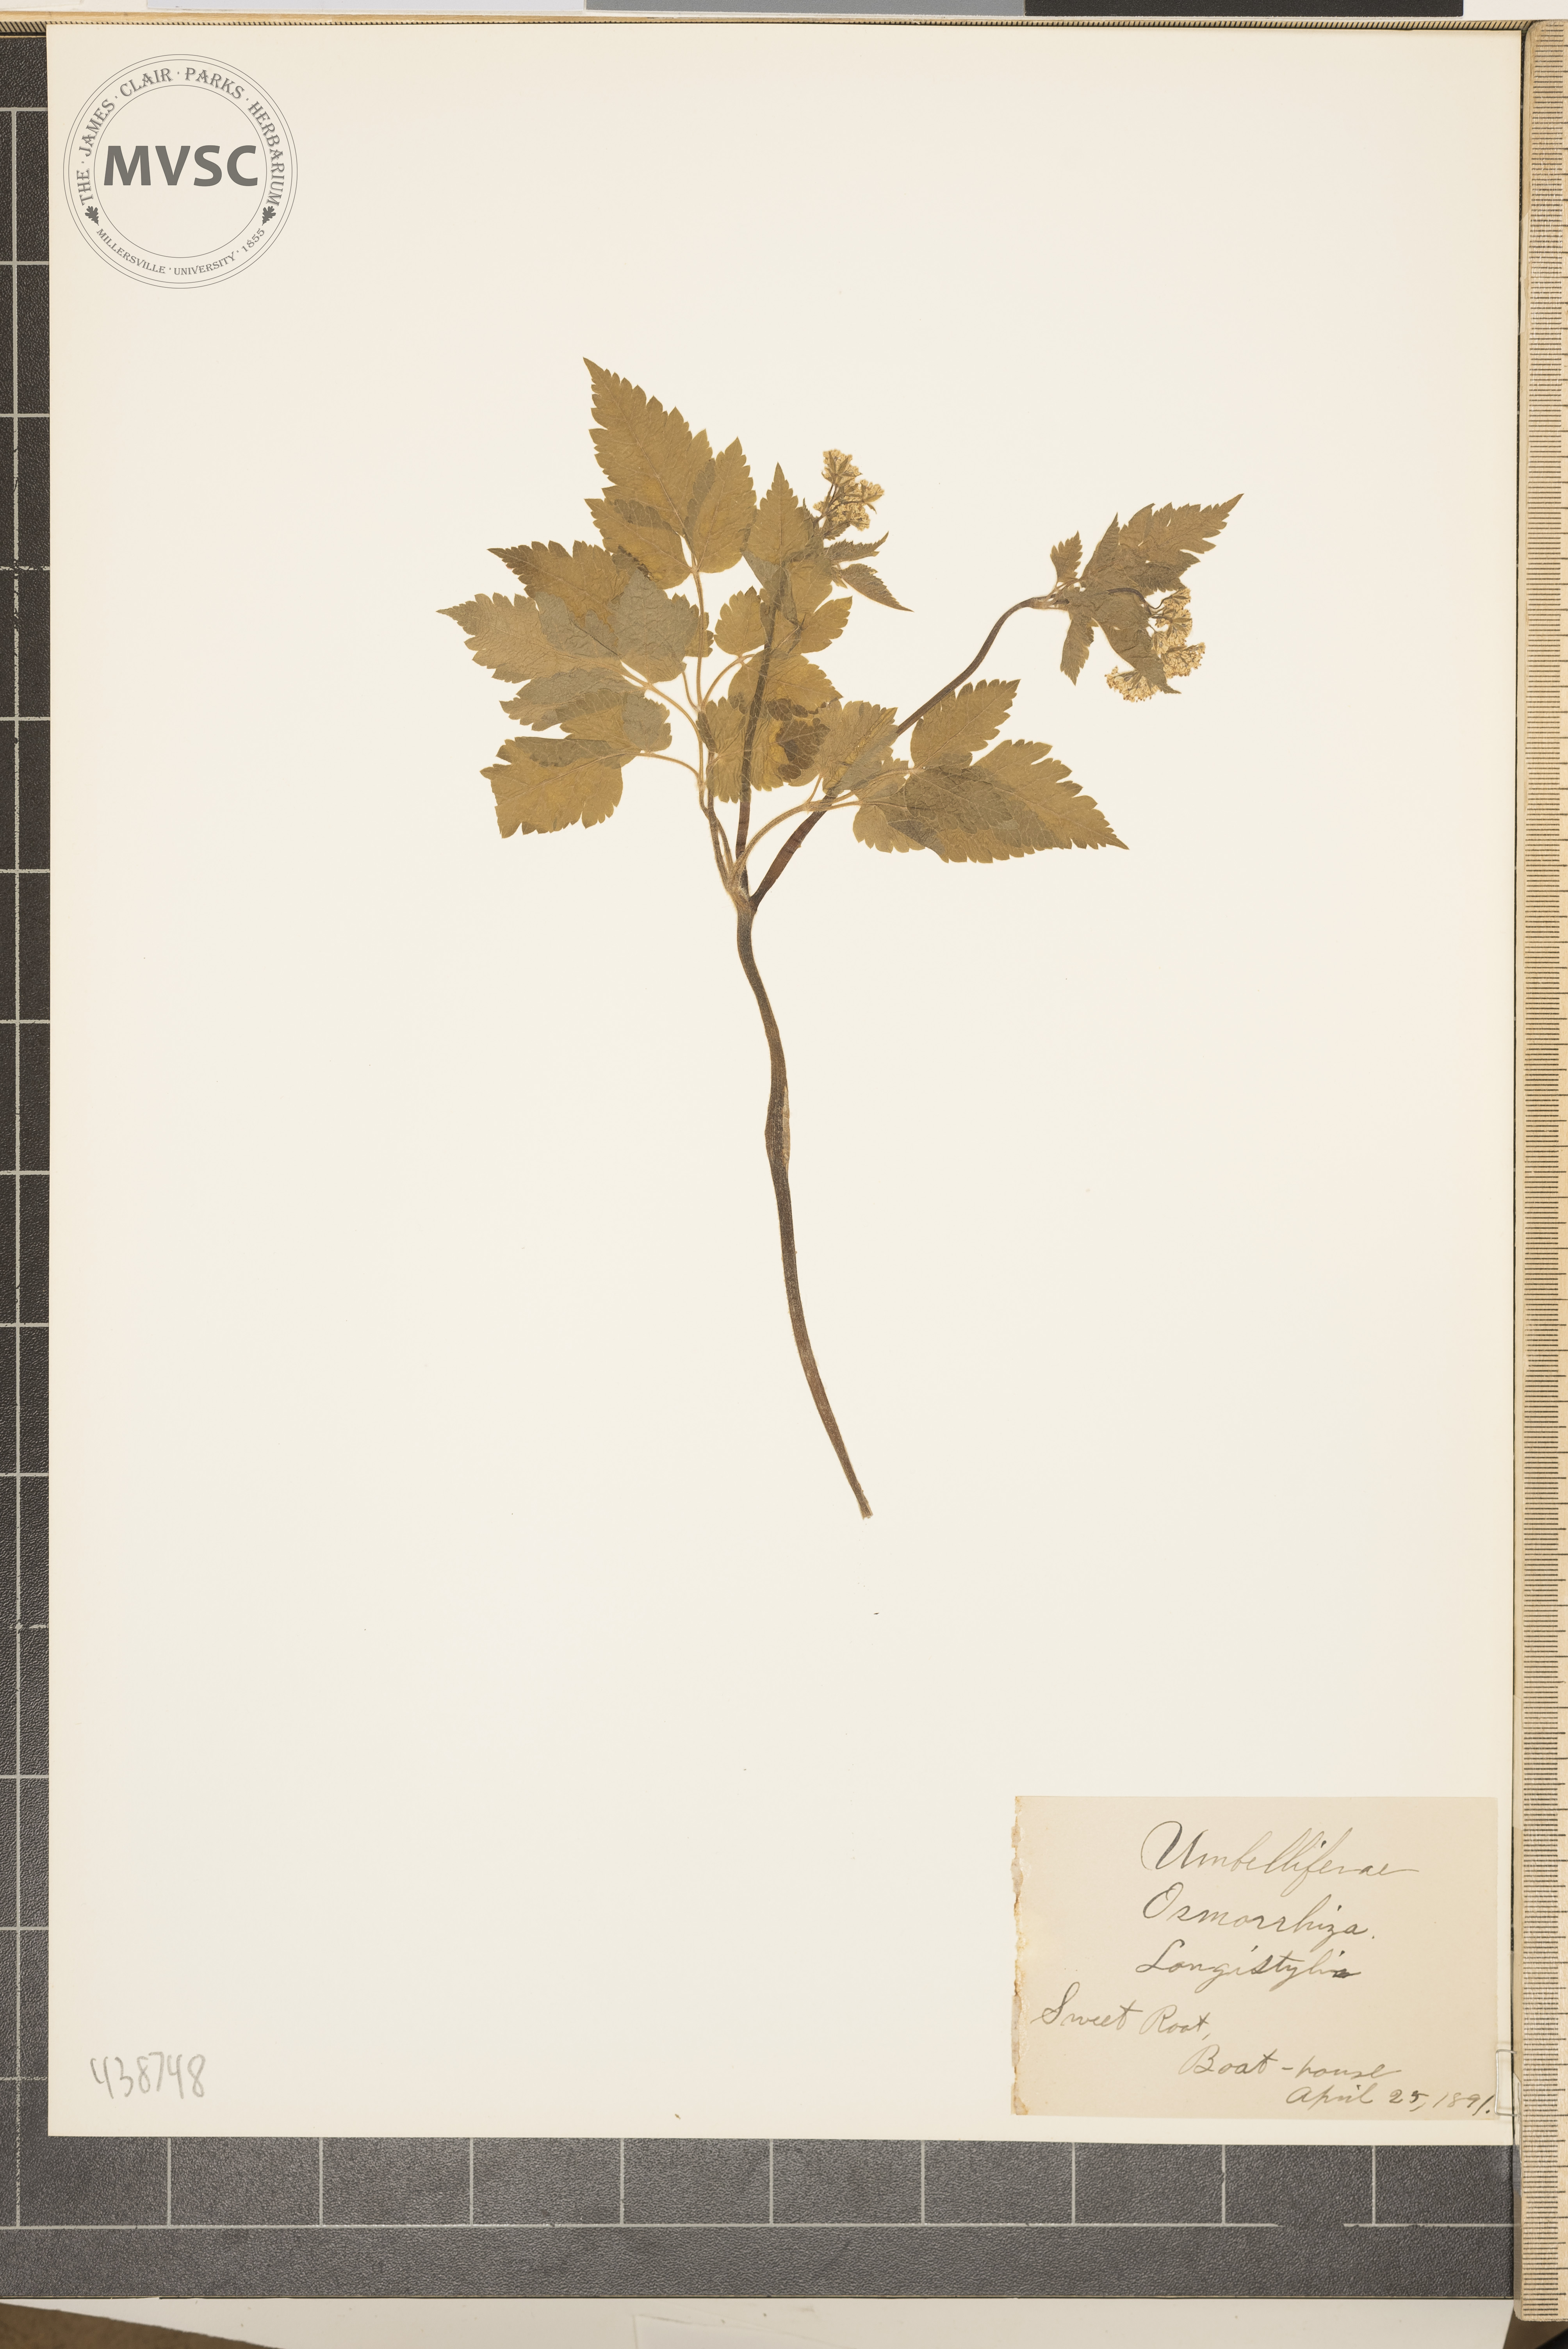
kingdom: Plantae
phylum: Tracheophyta
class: Magnoliopsida
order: Apiales
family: Apiaceae
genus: Osmorhiza
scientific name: Osmorhiza longistylis
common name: Sweet root
